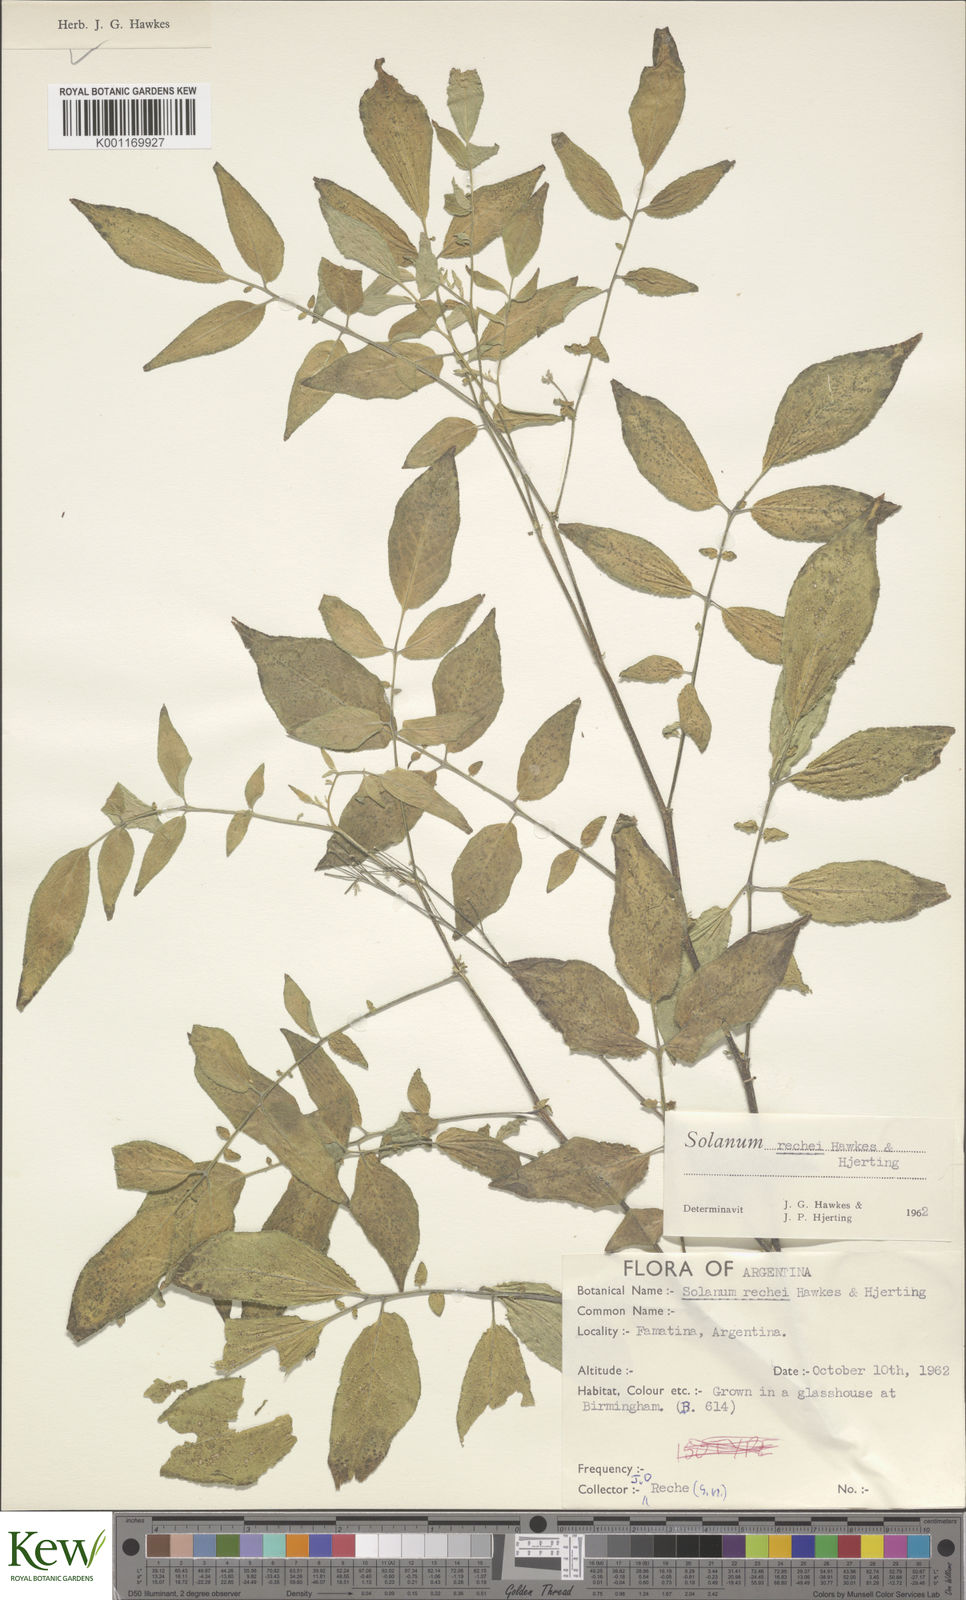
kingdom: Plantae
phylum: Tracheophyta
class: Magnoliopsida
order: Solanales
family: Solanaceae
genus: Solanum
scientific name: Solanum rechei
